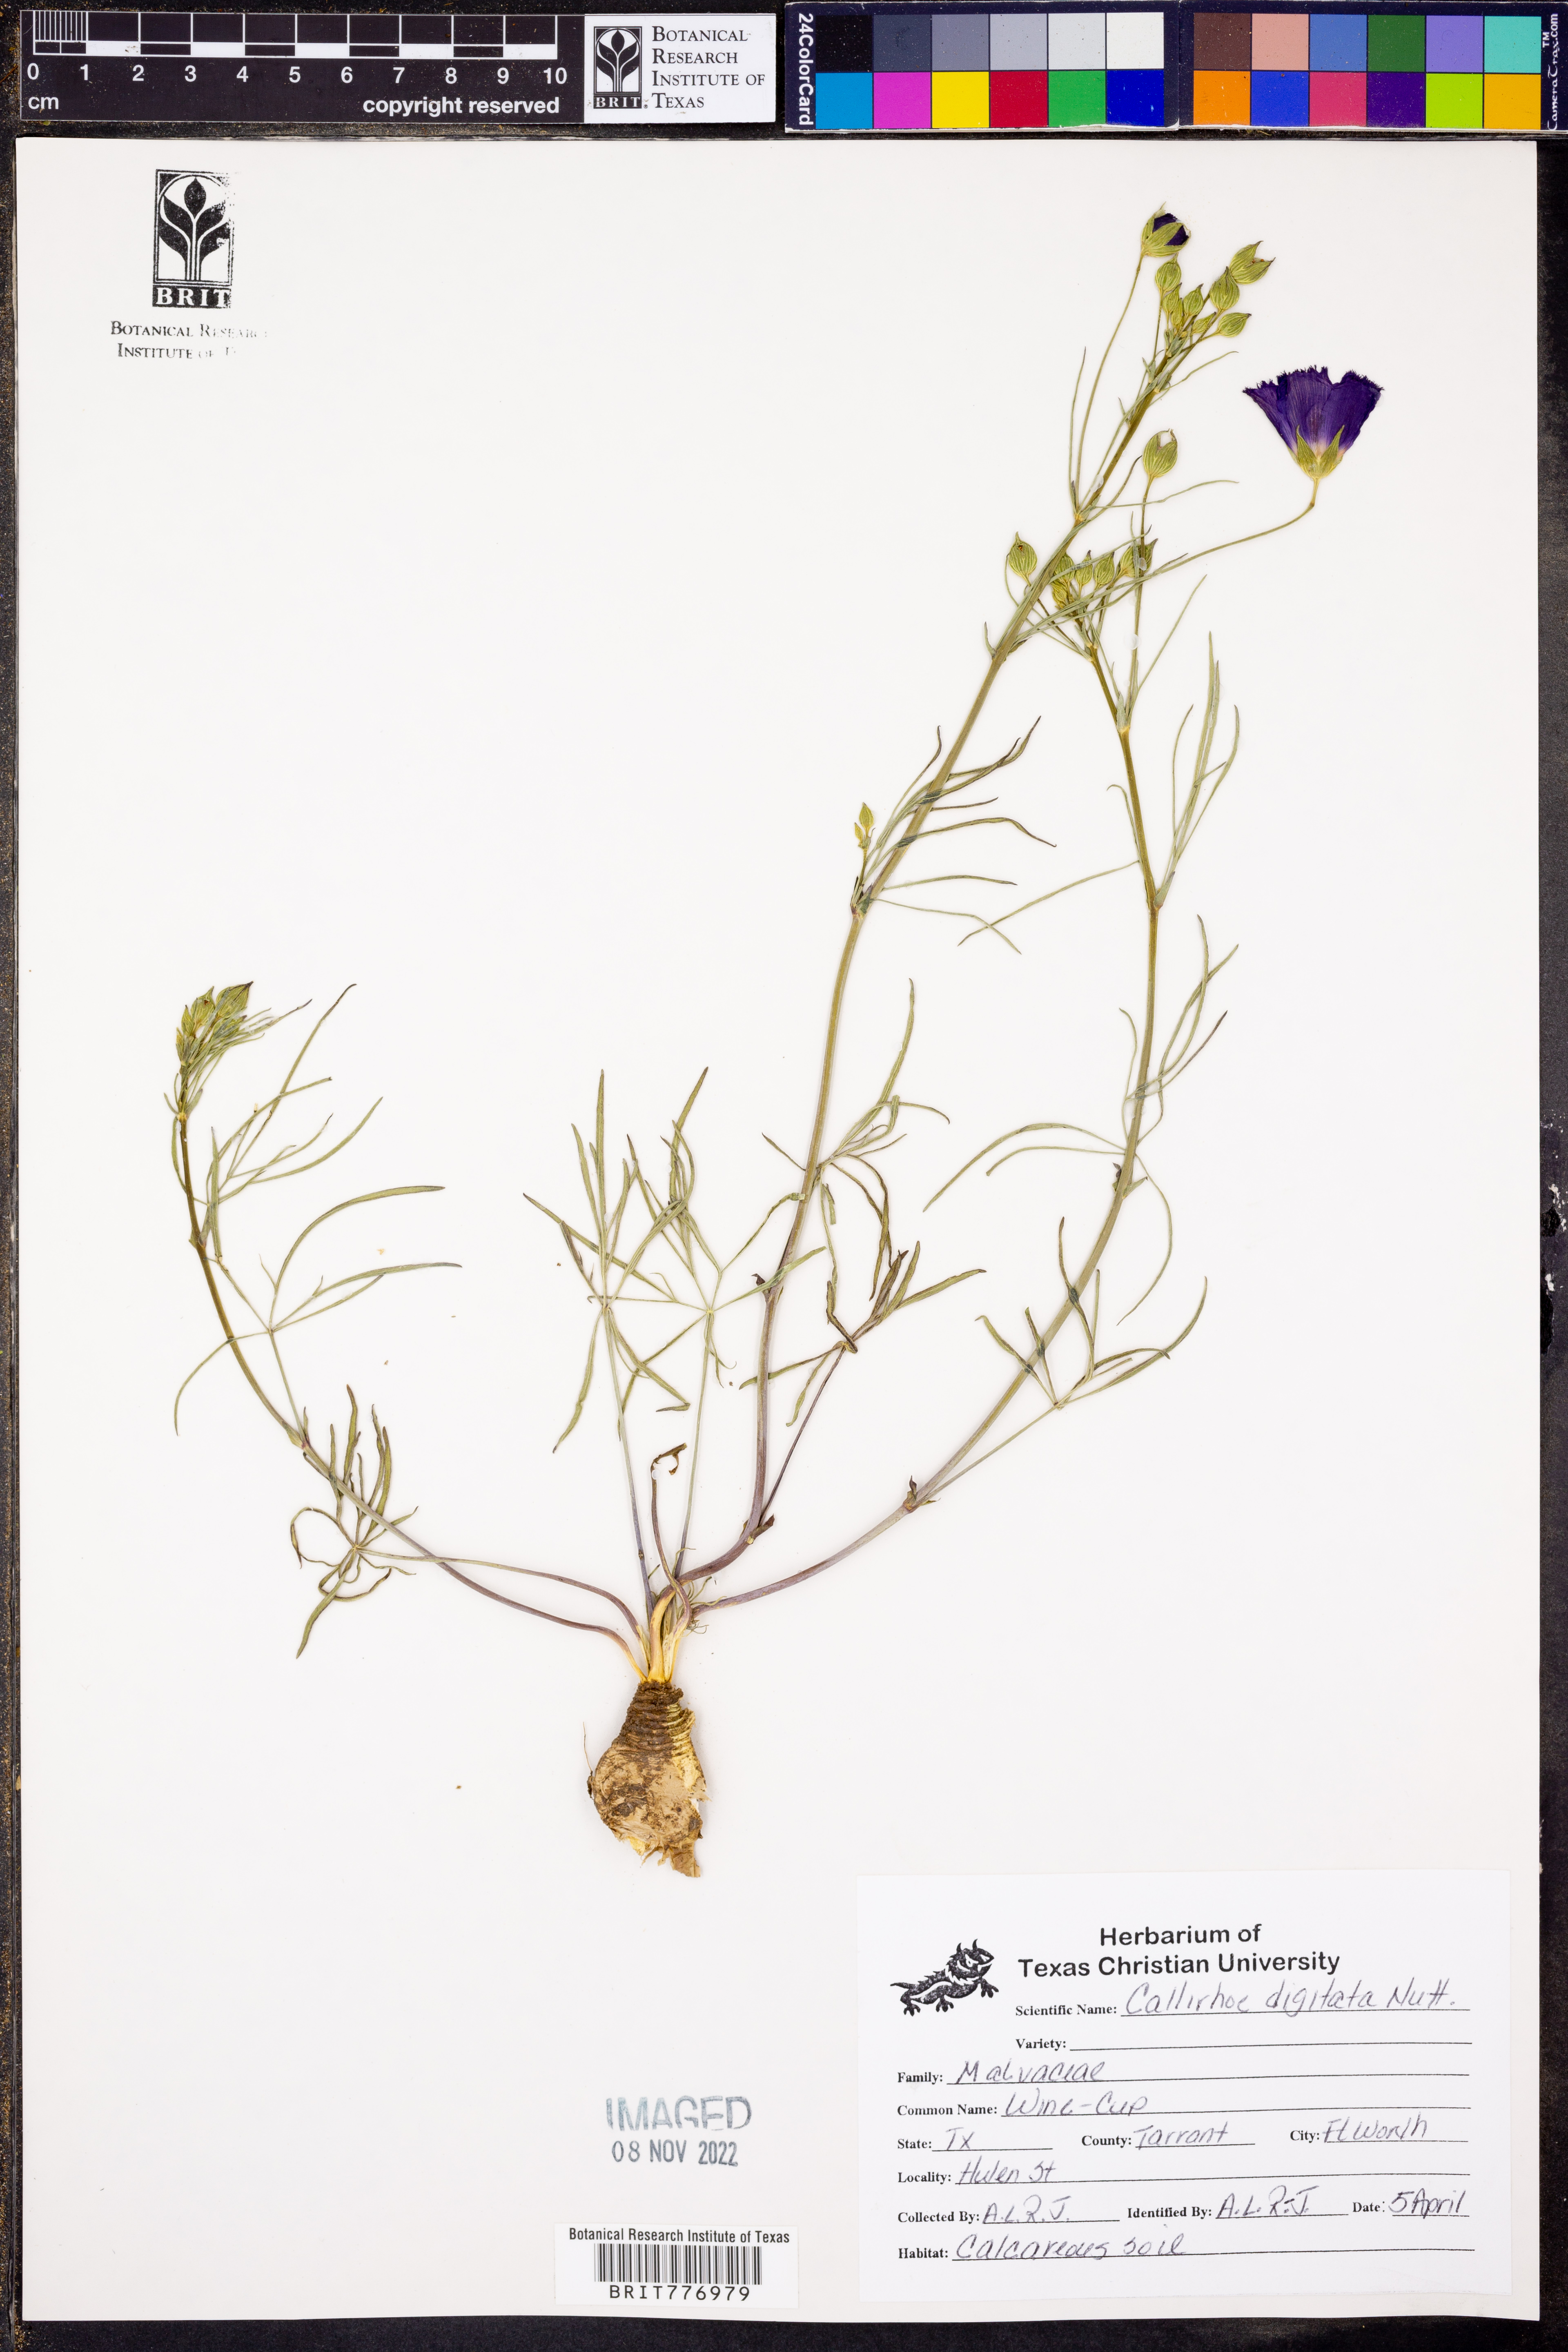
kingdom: Plantae
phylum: Tracheophyta
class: Magnoliopsida
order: Malvales
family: Malvaceae
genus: Callirhoe
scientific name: Callirhoe digitata
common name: Finger poppy-mallow
